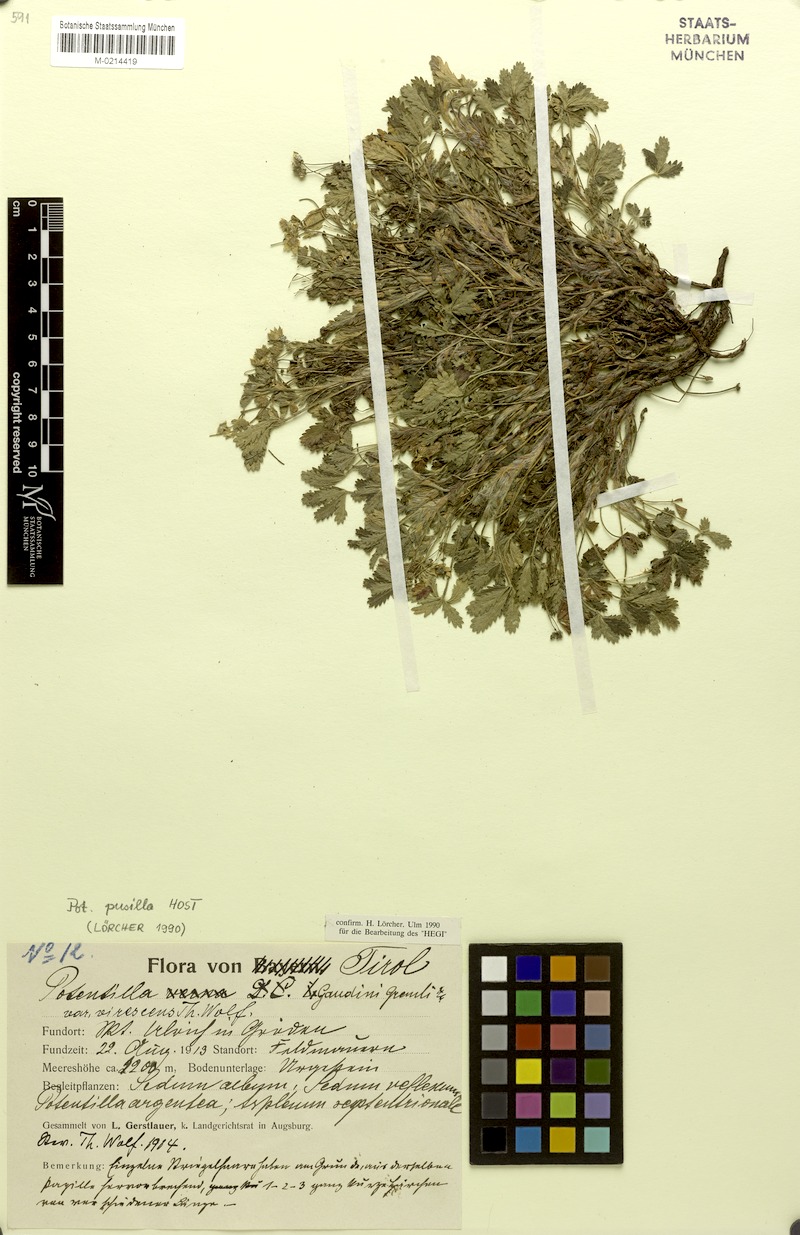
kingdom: Plantae
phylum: Tracheophyta
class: Magnoliopsida
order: Rosales
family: Rosaceae
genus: Potentilla
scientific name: Potentilla pusilla
